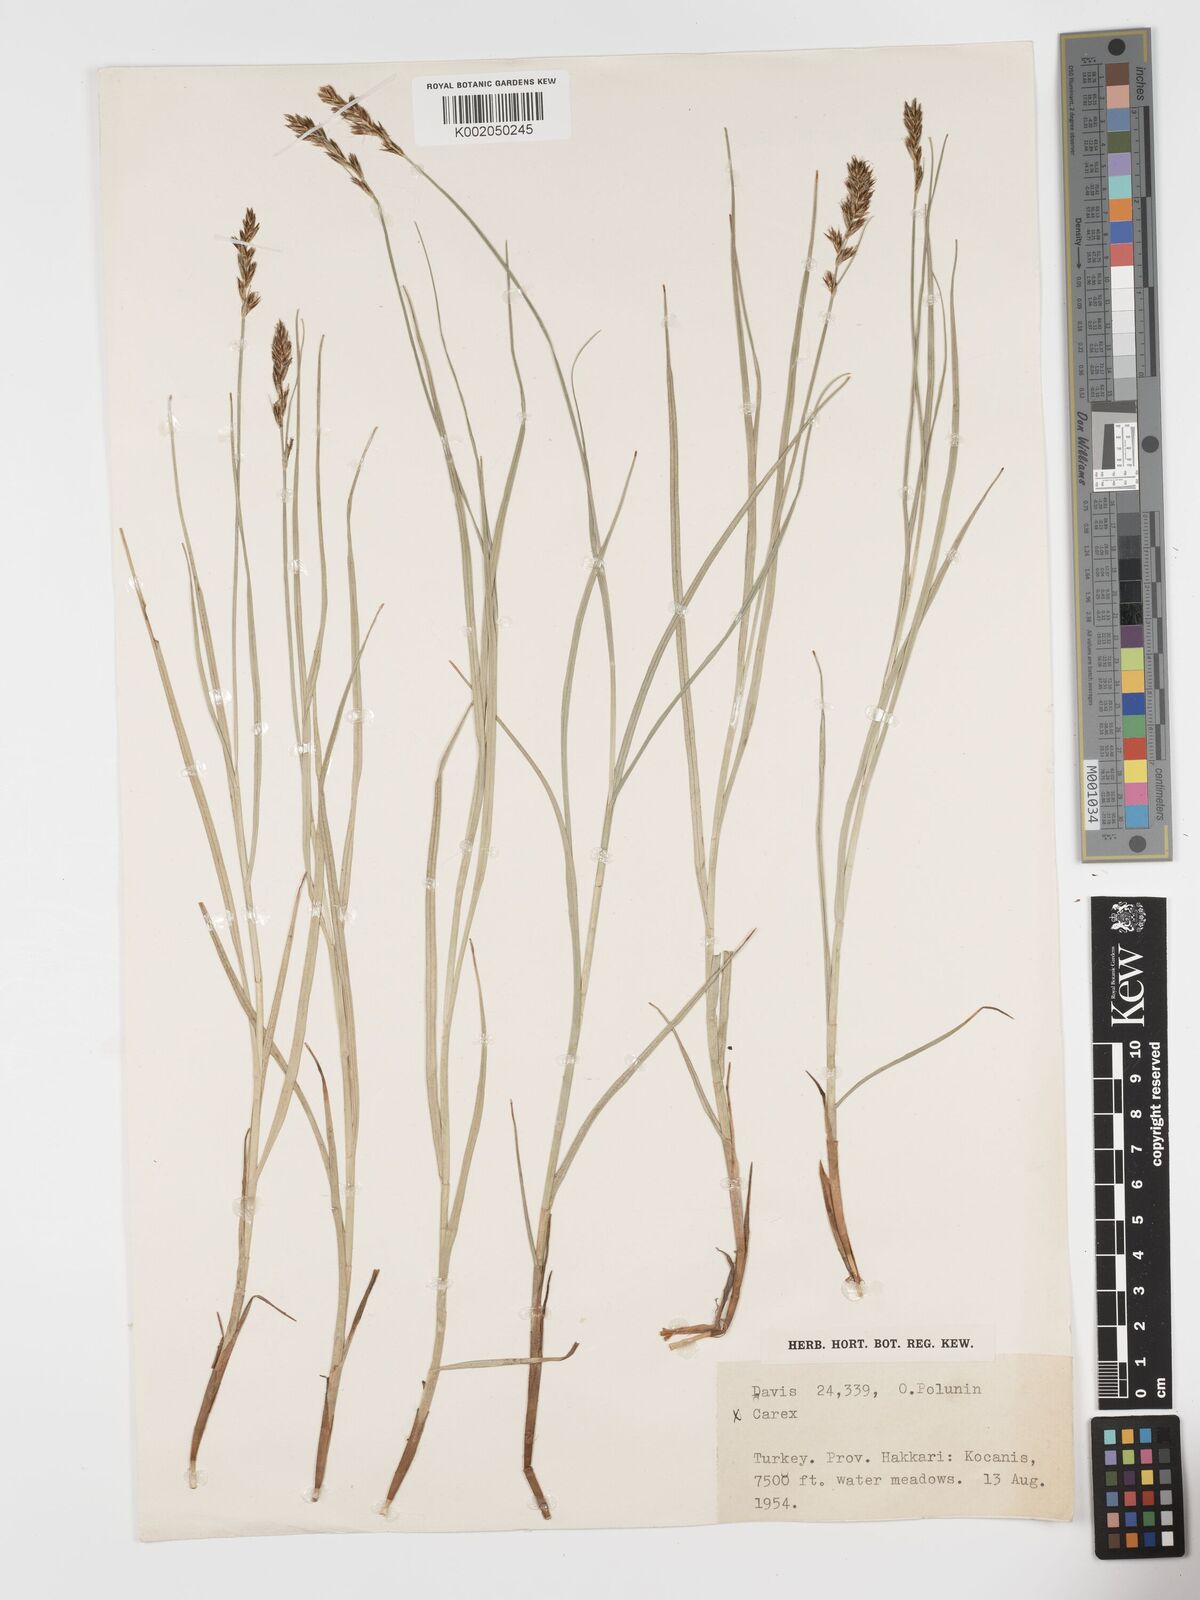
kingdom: Plantae
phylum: Tracheophyta
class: Liliopsida
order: Poales
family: Cyperaceae
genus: Blysmus
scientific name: Blysmus compressus
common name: Flat-sedge
